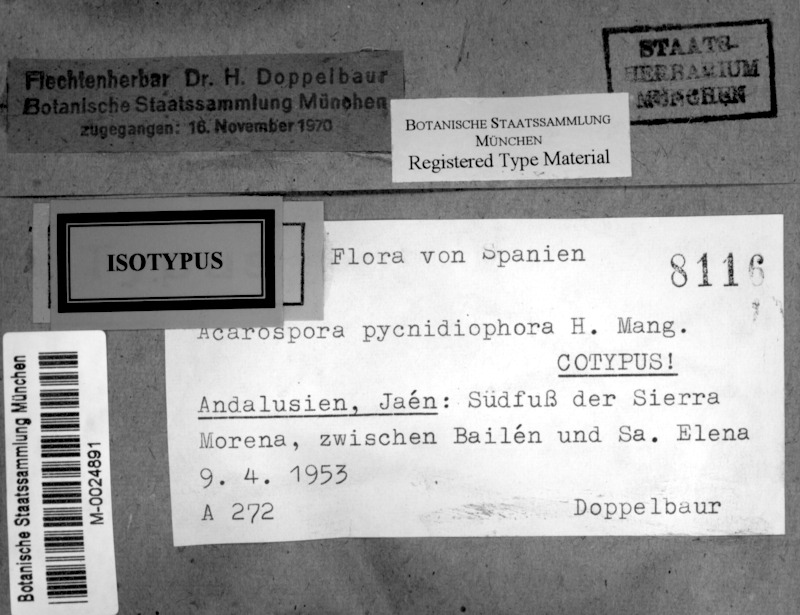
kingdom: Fungi
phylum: Ascomycota
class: Lecanoromycetes
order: Acarosporales
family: Acarosporaceae
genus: Acarospora
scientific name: Acarospora pycnidiophora
